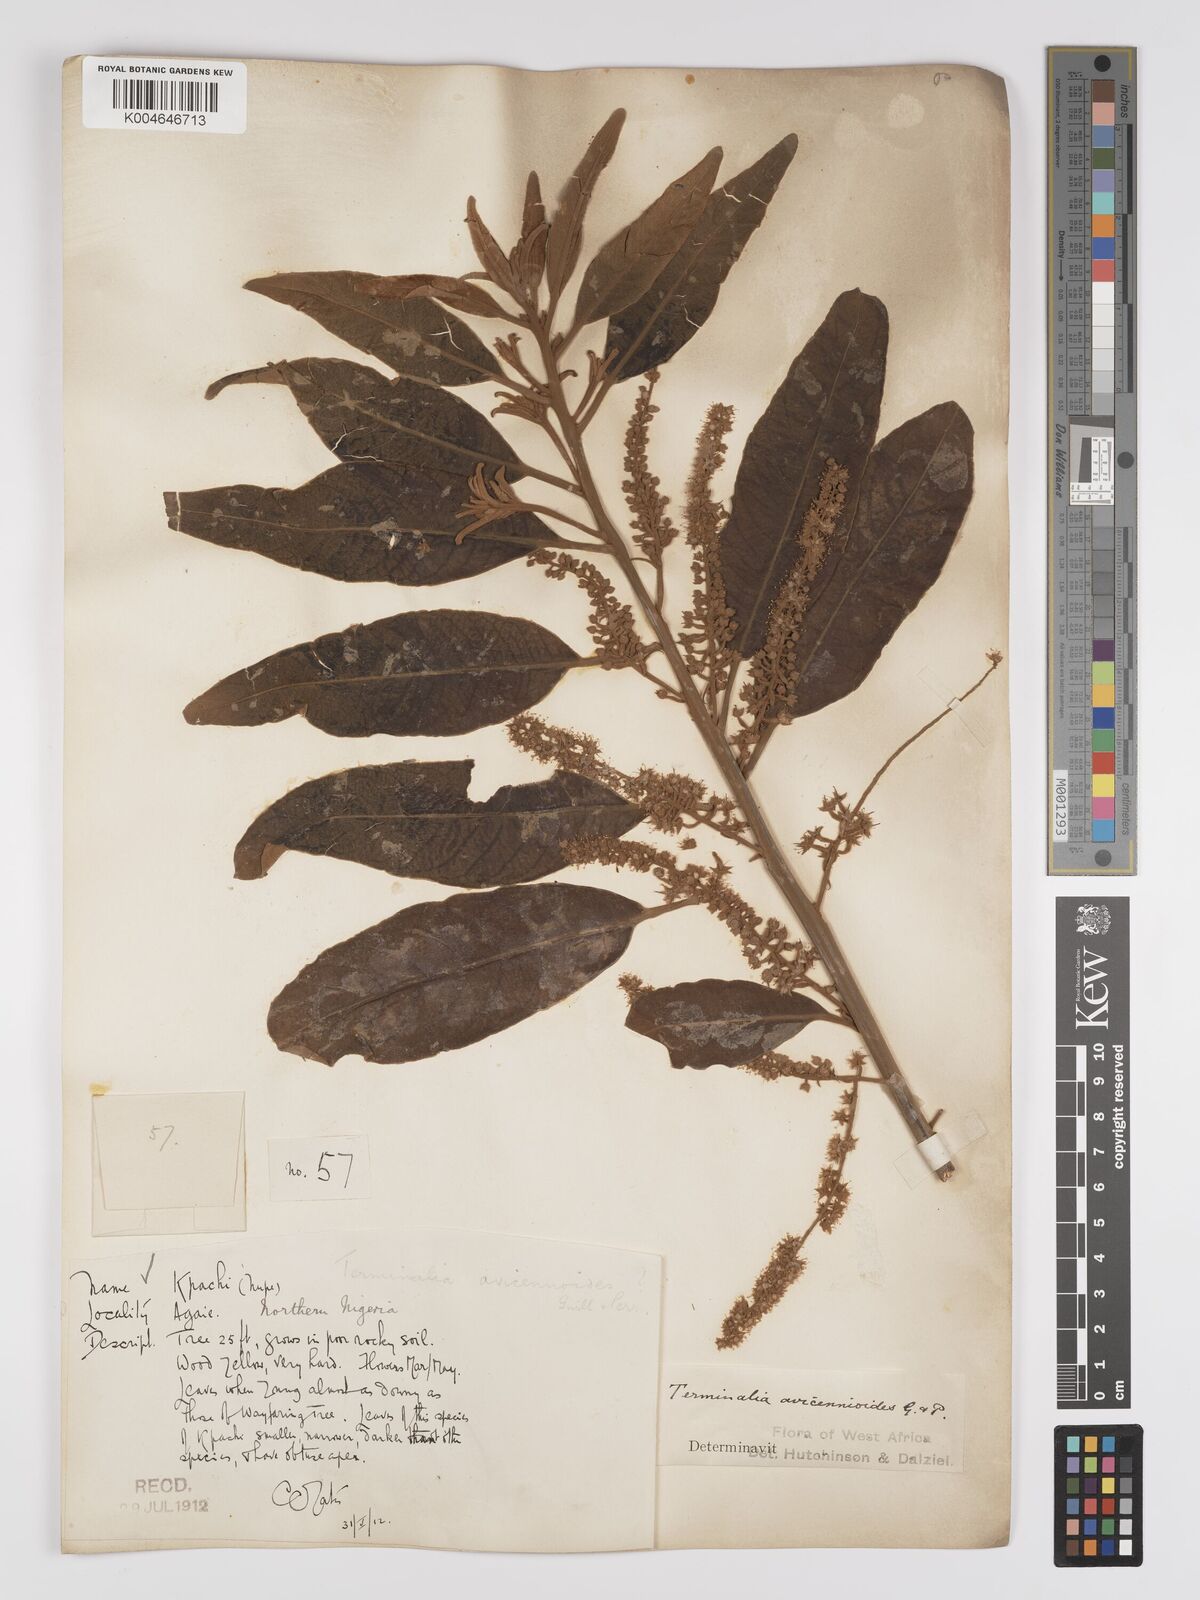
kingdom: Plantae
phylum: Tracheophyta
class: Magnoliopsida
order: Myrtales
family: Combretaceae
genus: Terminalia
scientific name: Terminalia avicennioides
